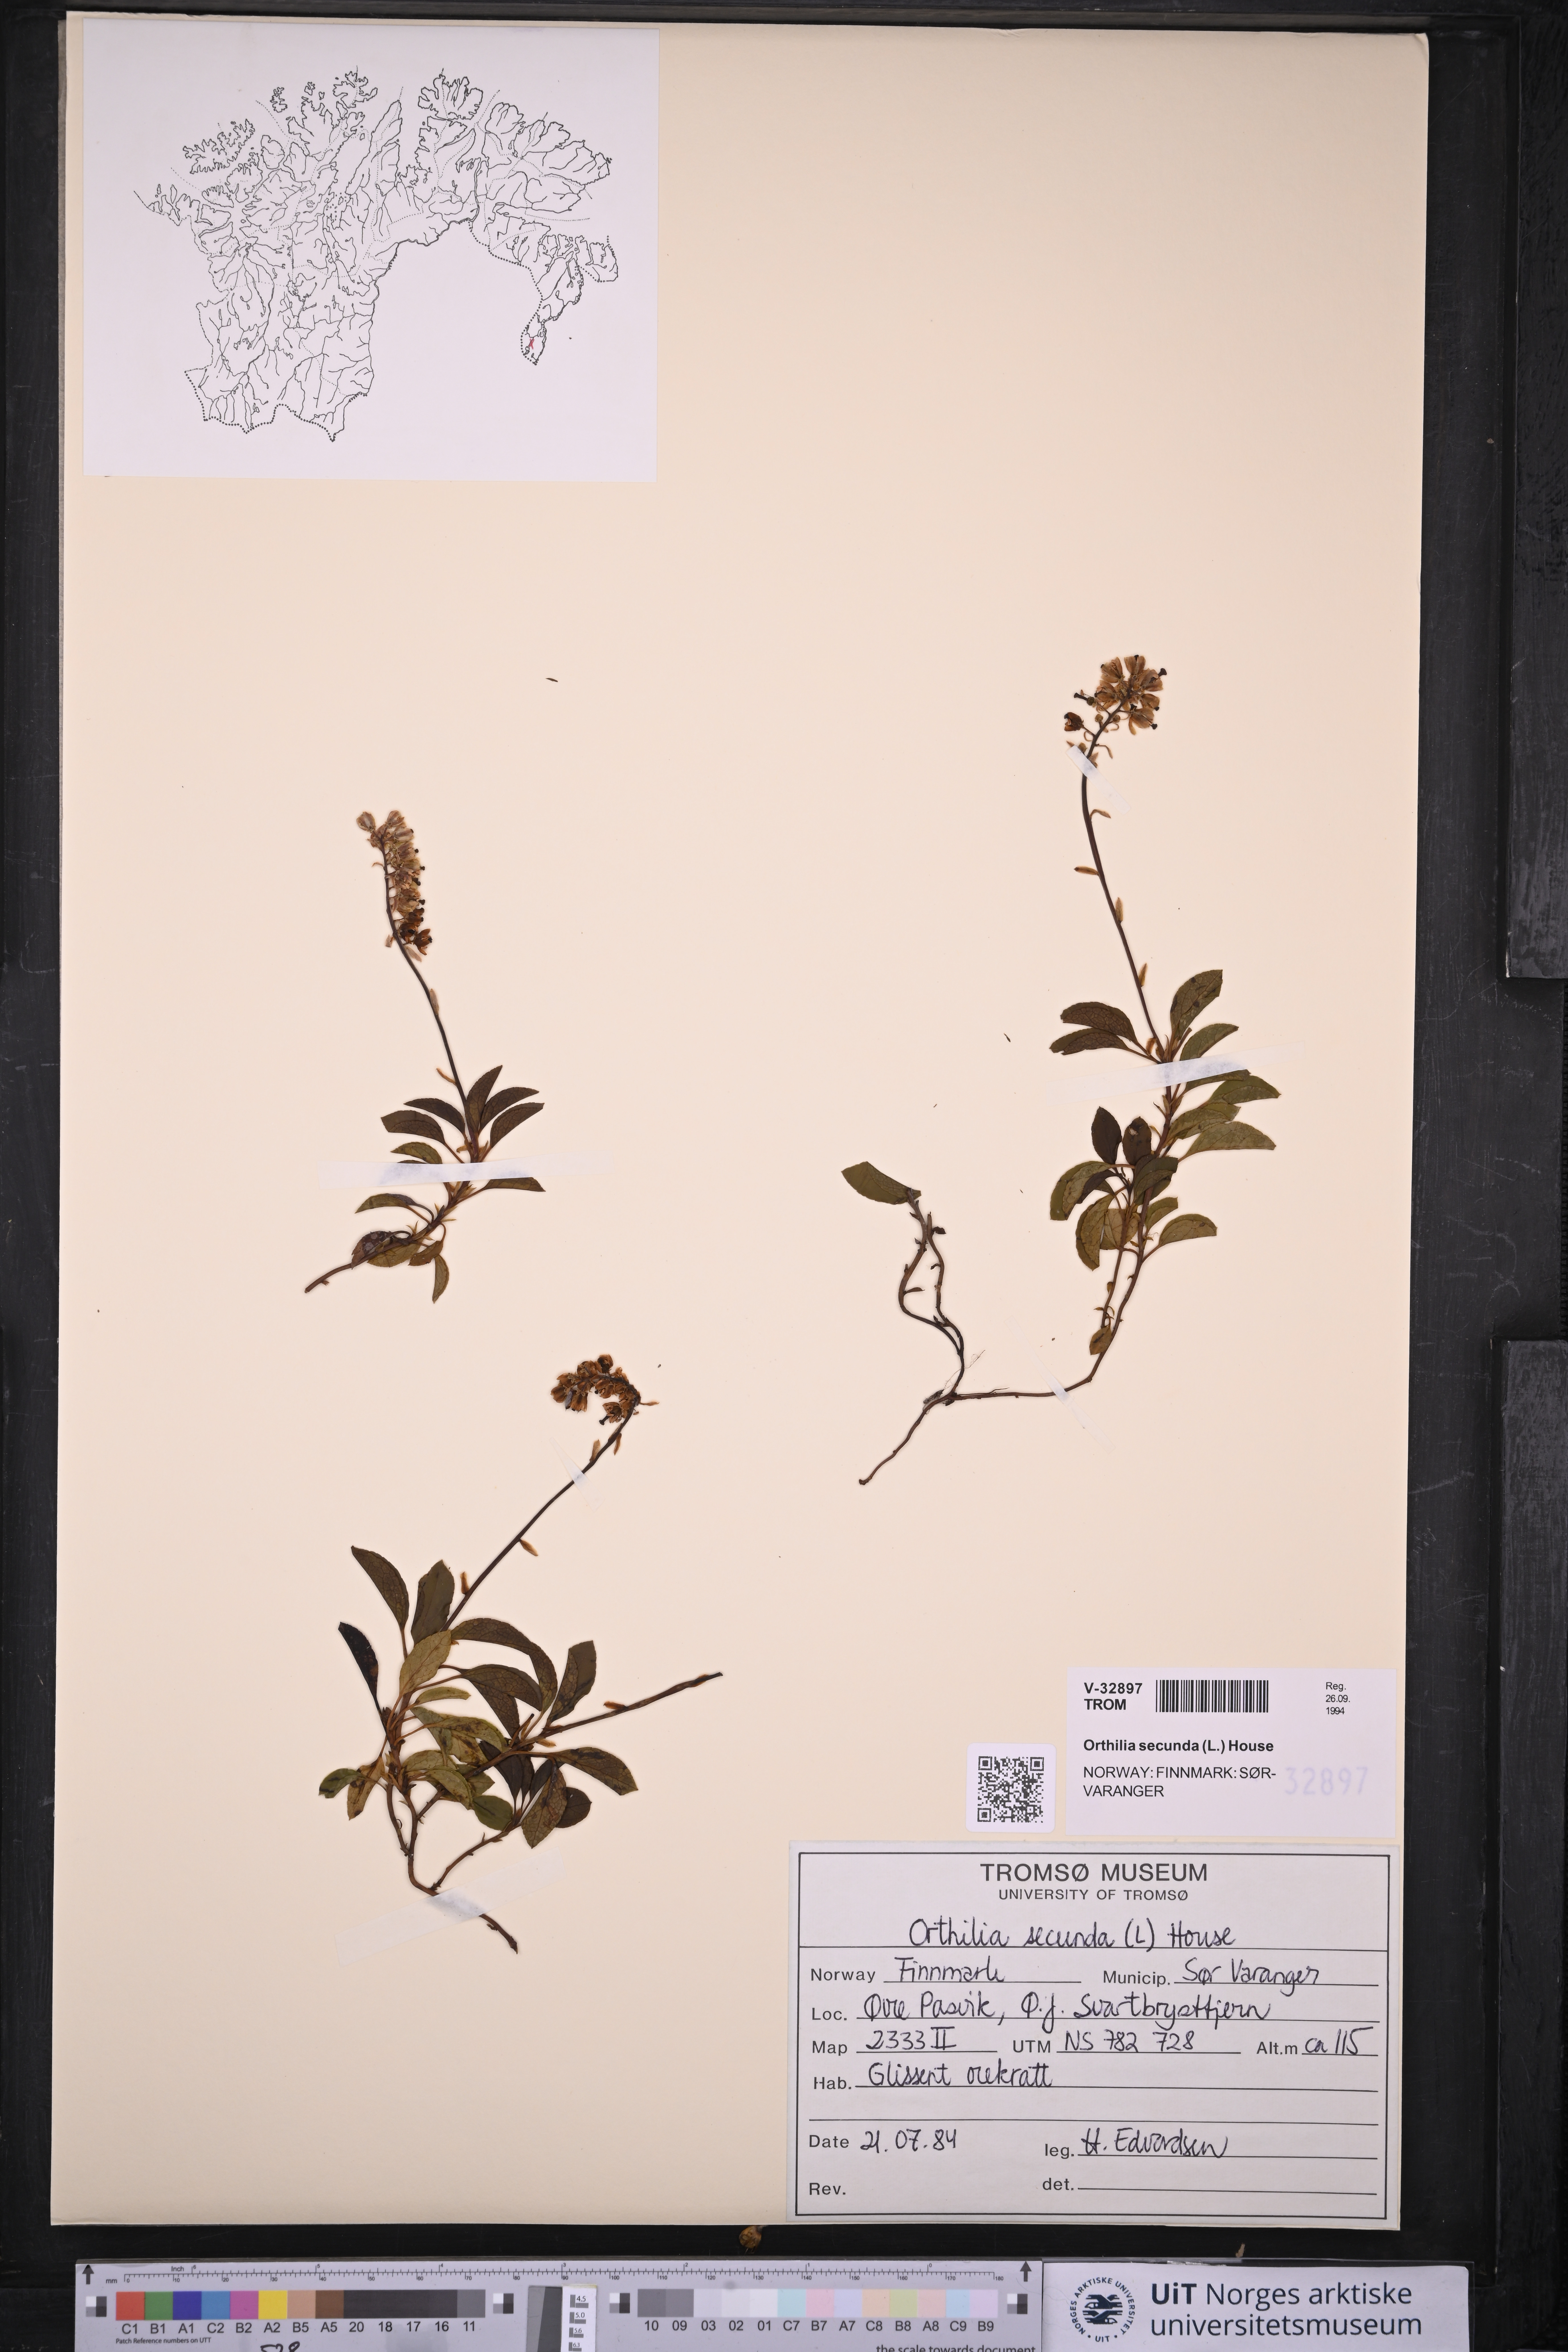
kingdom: Plantae
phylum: Tracheophyta
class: Magnoliopsida
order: Ericales
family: Ericaceae
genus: Orthilia
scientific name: Orthilia secunda
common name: One-sided orthilia
